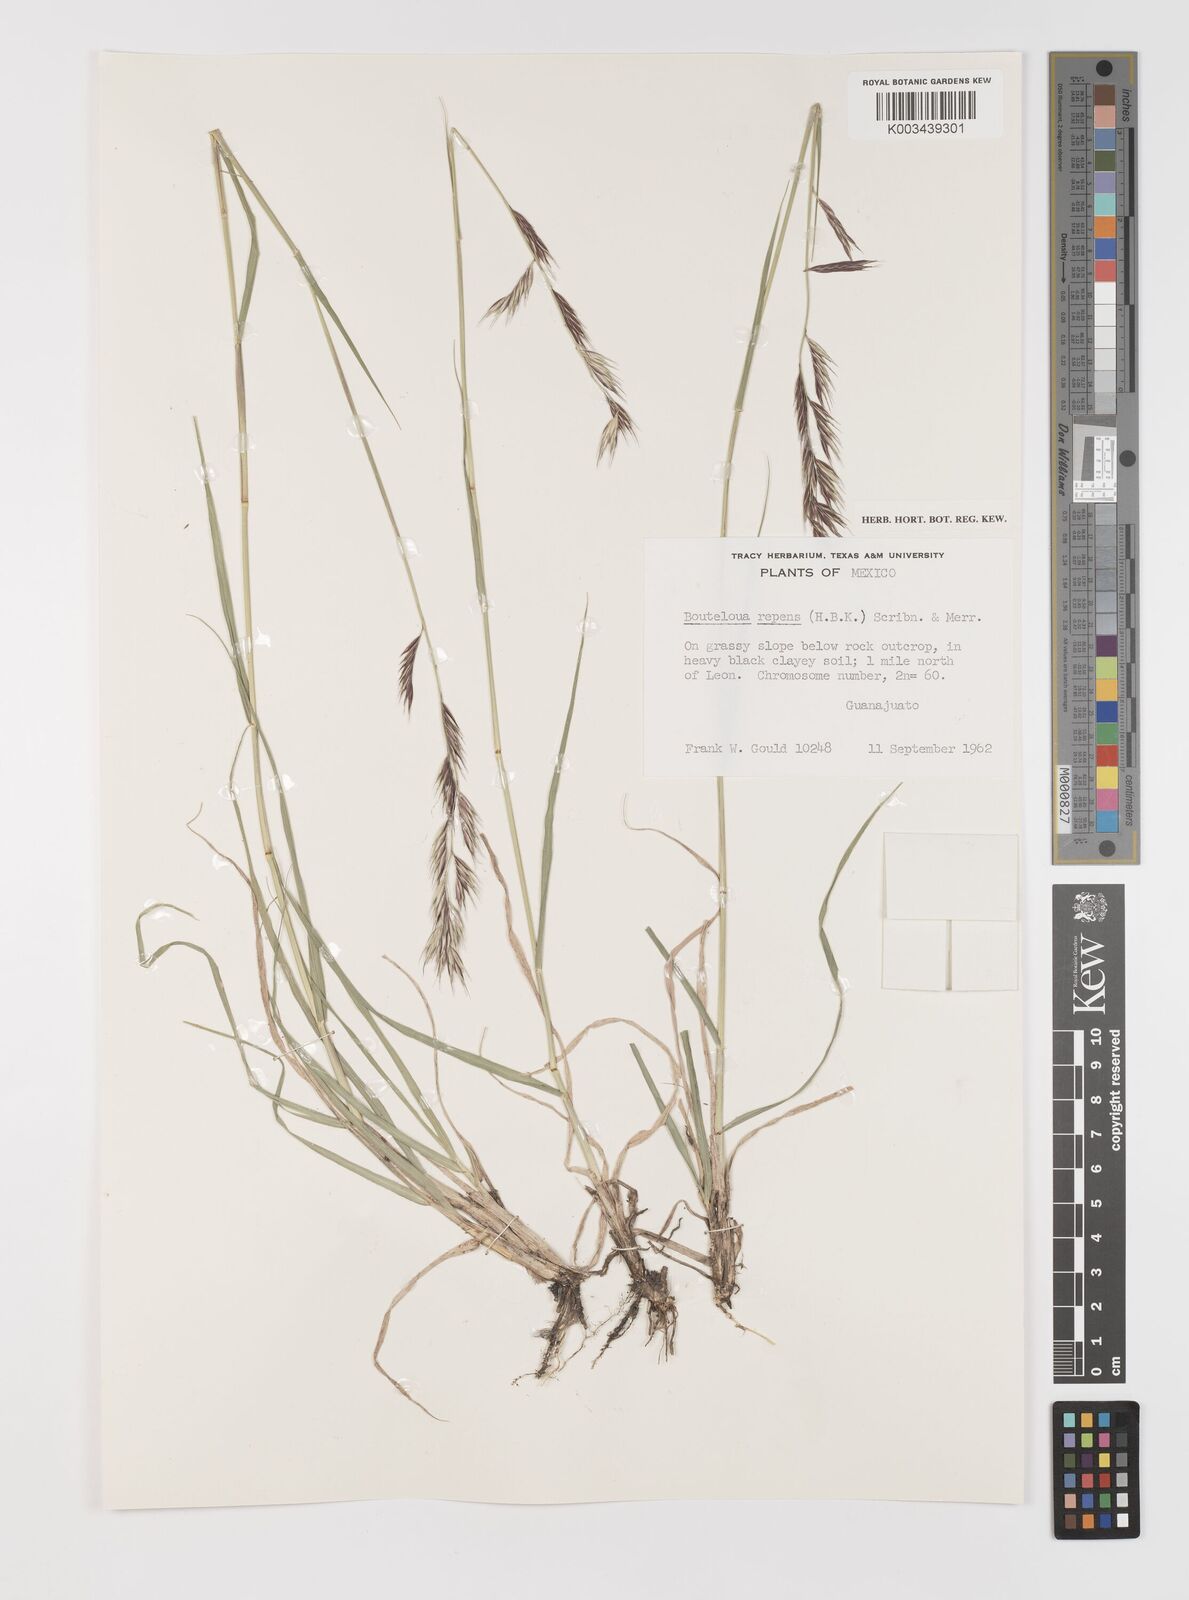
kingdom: Plantae
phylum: Tracheophyta
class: Liliopsida
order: Poales
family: Poaceae
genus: Bouteloua
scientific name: Bouteloua repens
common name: Slender grama
